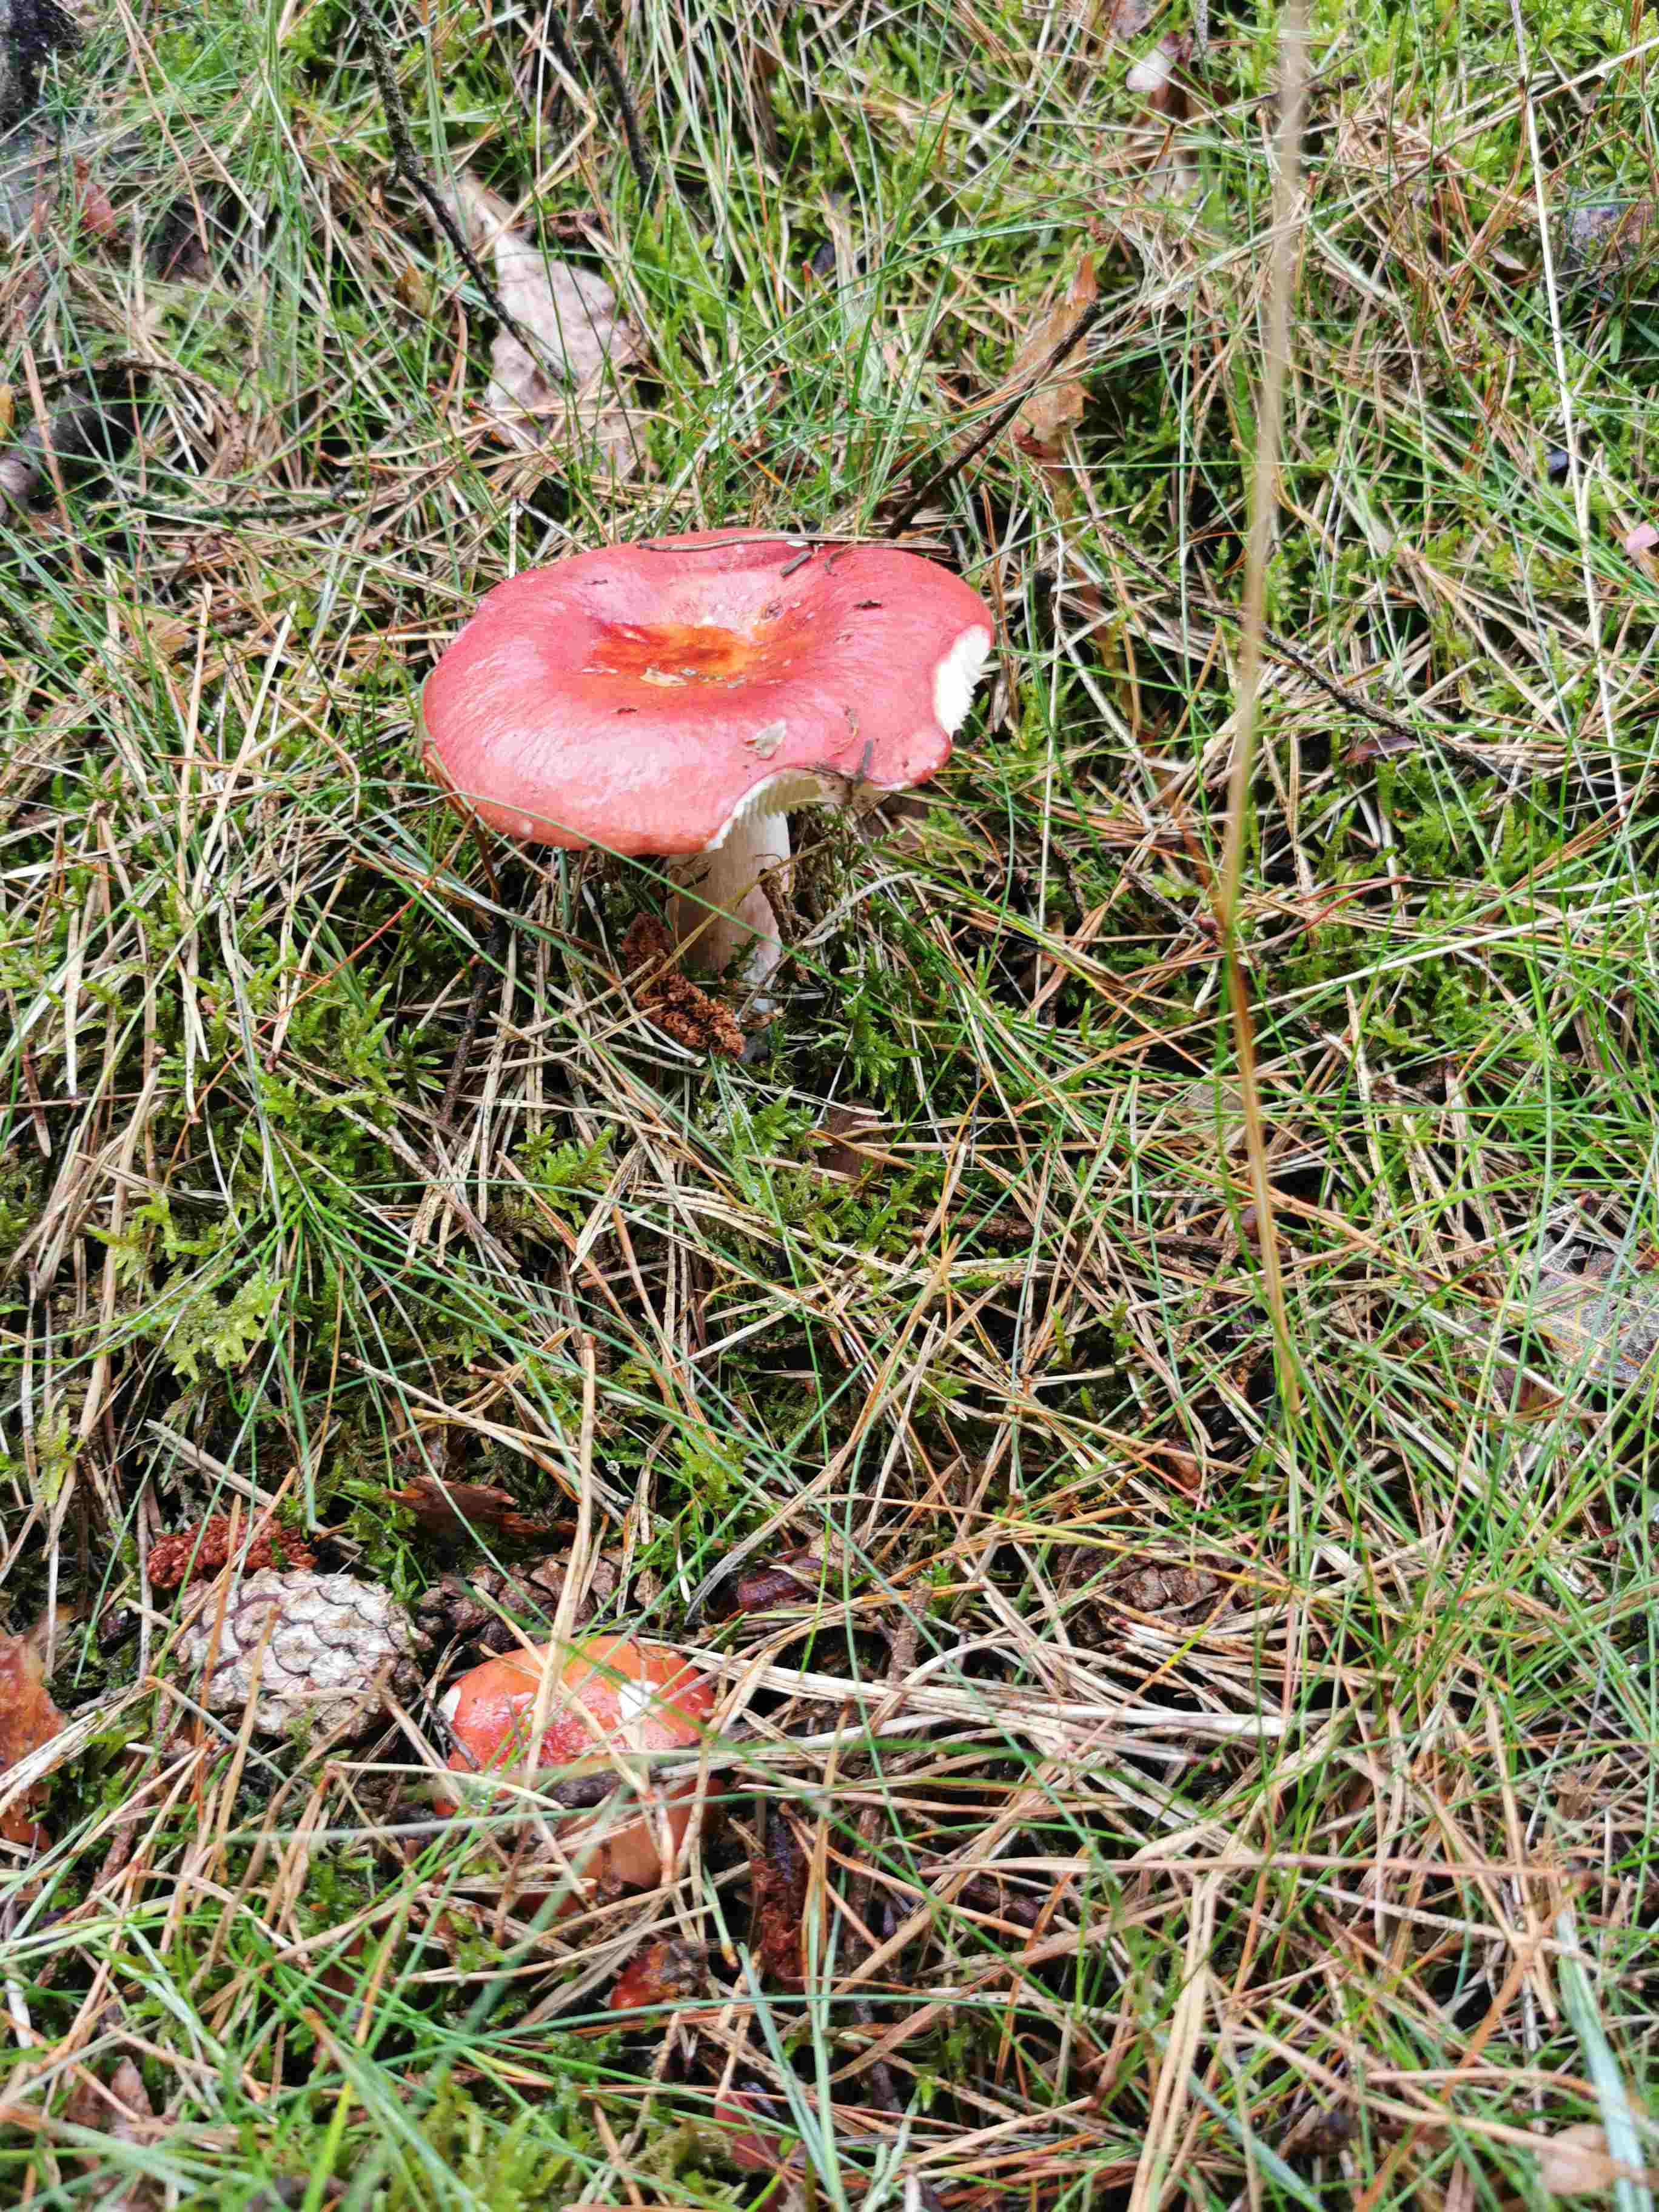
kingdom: Fungi
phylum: Basidiomycota
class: Agaricomycetes
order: Russulales
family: Russulaceae
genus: Russula
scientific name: Russula paludosa
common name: prægtig skørhat
